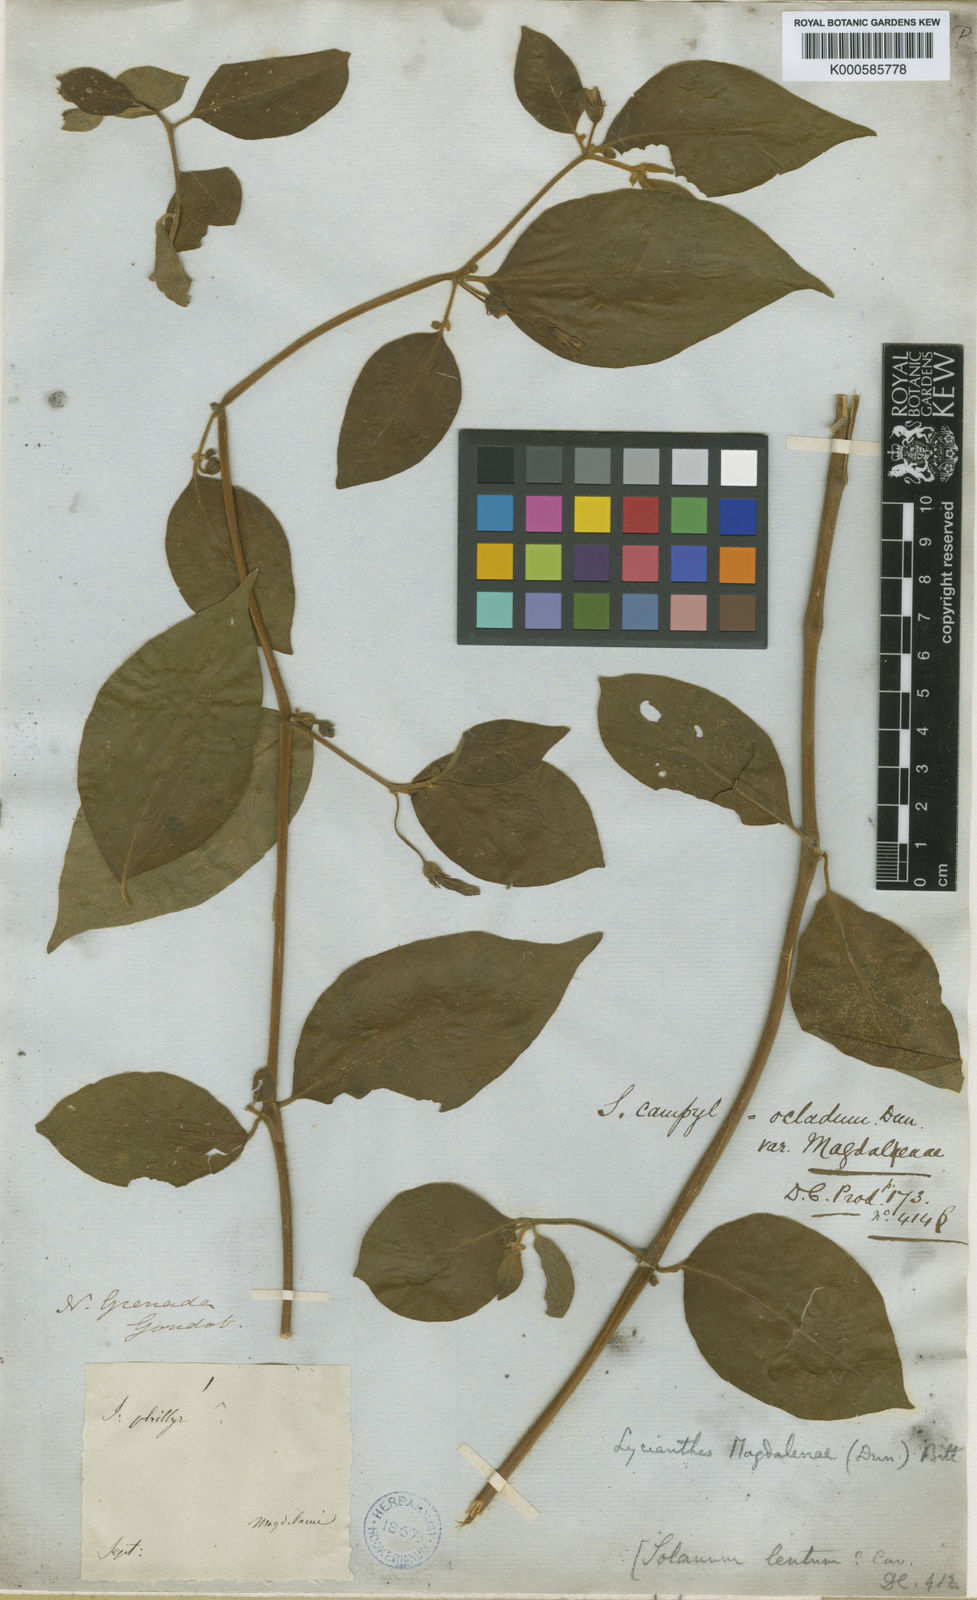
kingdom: Plantae
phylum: Tracheophyta
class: Magnoliopsida
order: Solanales
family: Solanaceae
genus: Lycianthes
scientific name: Lycianthes magdalenae
